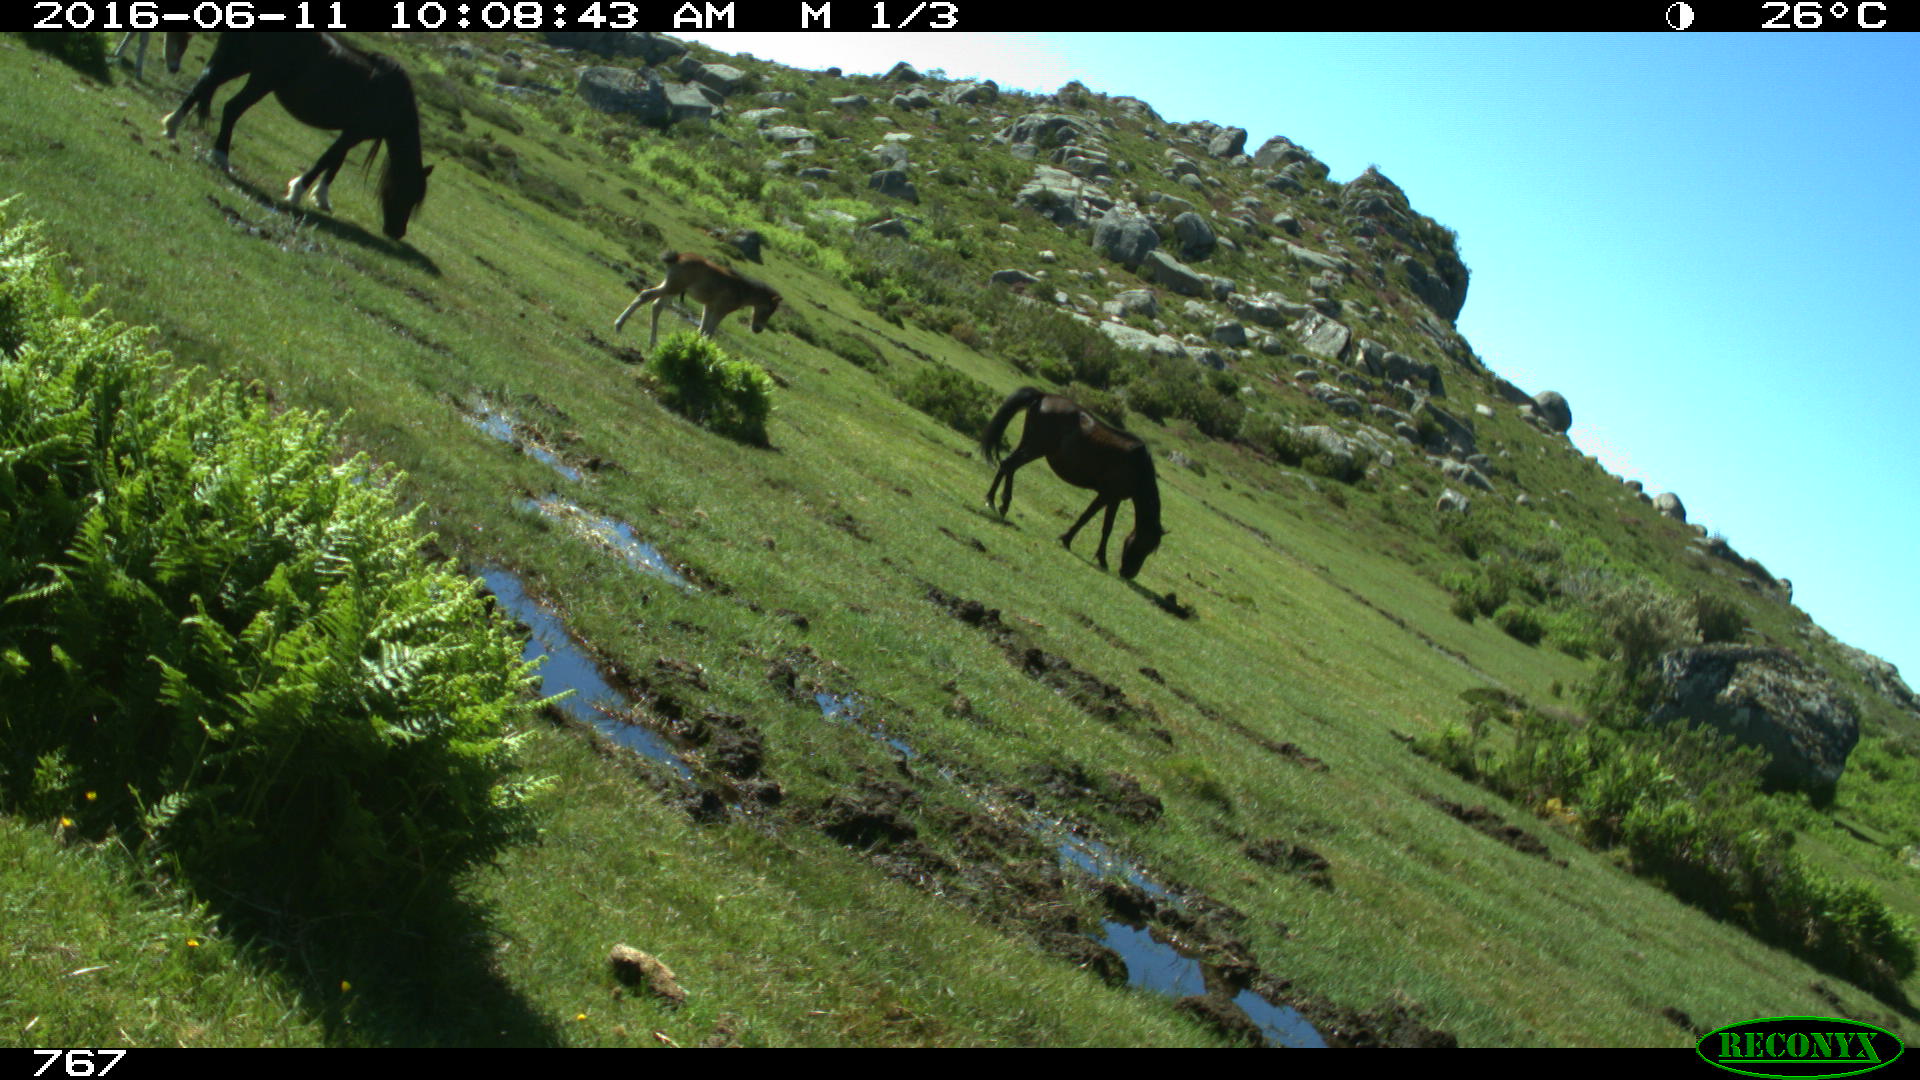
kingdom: Animalia
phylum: Chordata
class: Mammalia
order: Perissodactyla
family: Equidae
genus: Equus
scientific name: Equus caballus
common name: Horse
